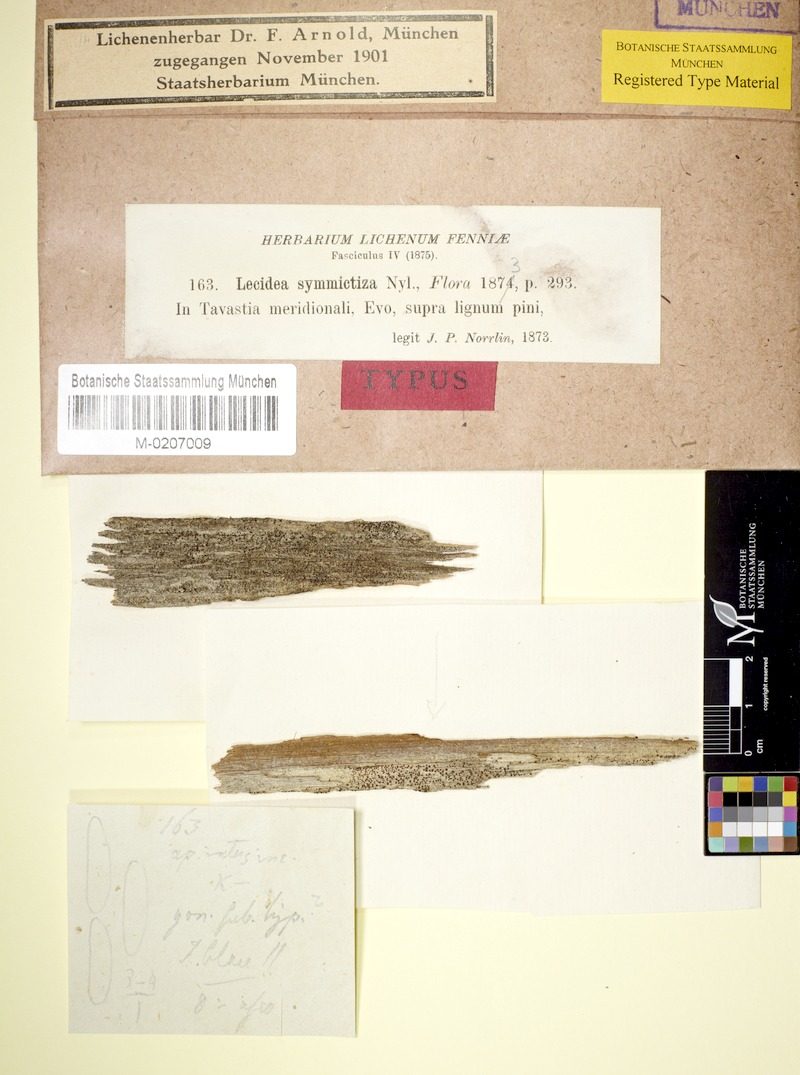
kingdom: Fungi
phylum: Ascomycota
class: Lecanoromycetes
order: Lecanorales
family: Lecanoraceae
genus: Lecanora
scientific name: Lecanora hypoptella
